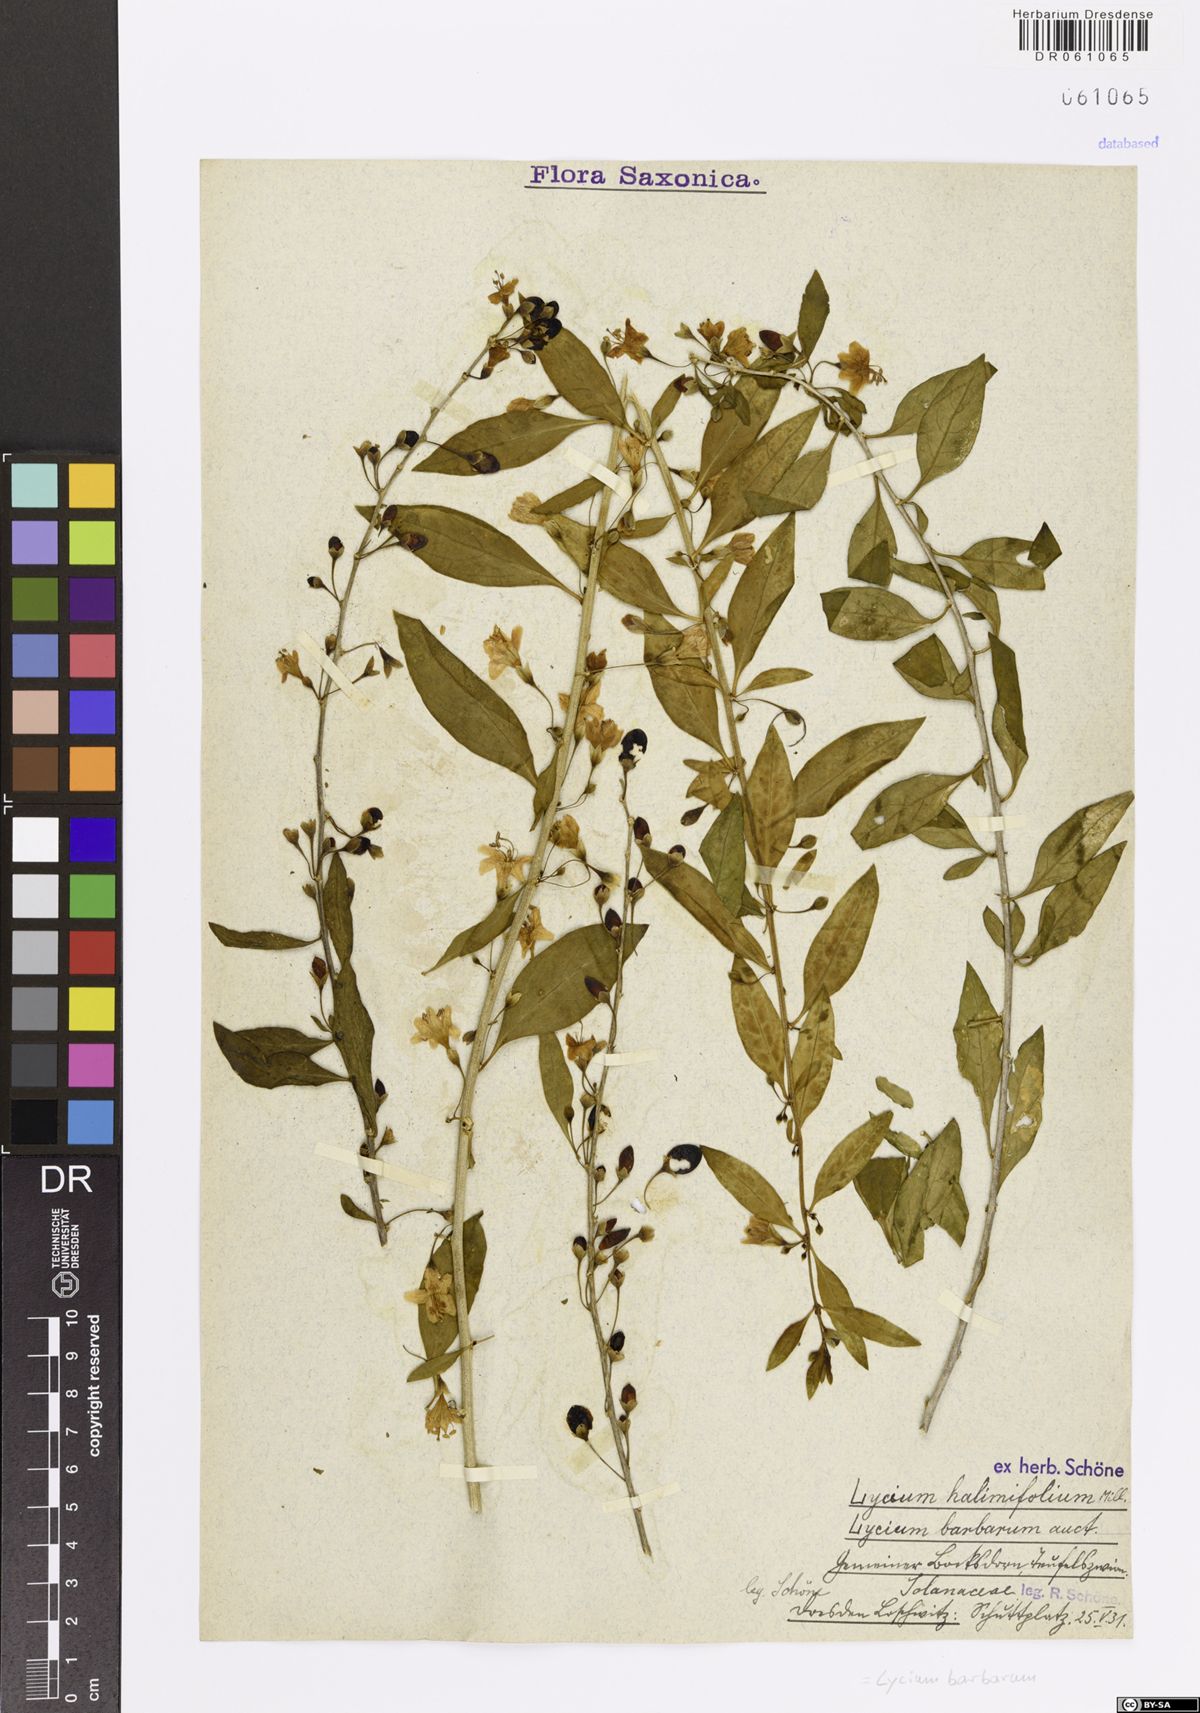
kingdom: Plantae
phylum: Tracheophyta
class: Magnoliopsida
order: Solanales
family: Solanaceae
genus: Lycium
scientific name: Lycium barbarum
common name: Duke of argyll's teaplant
